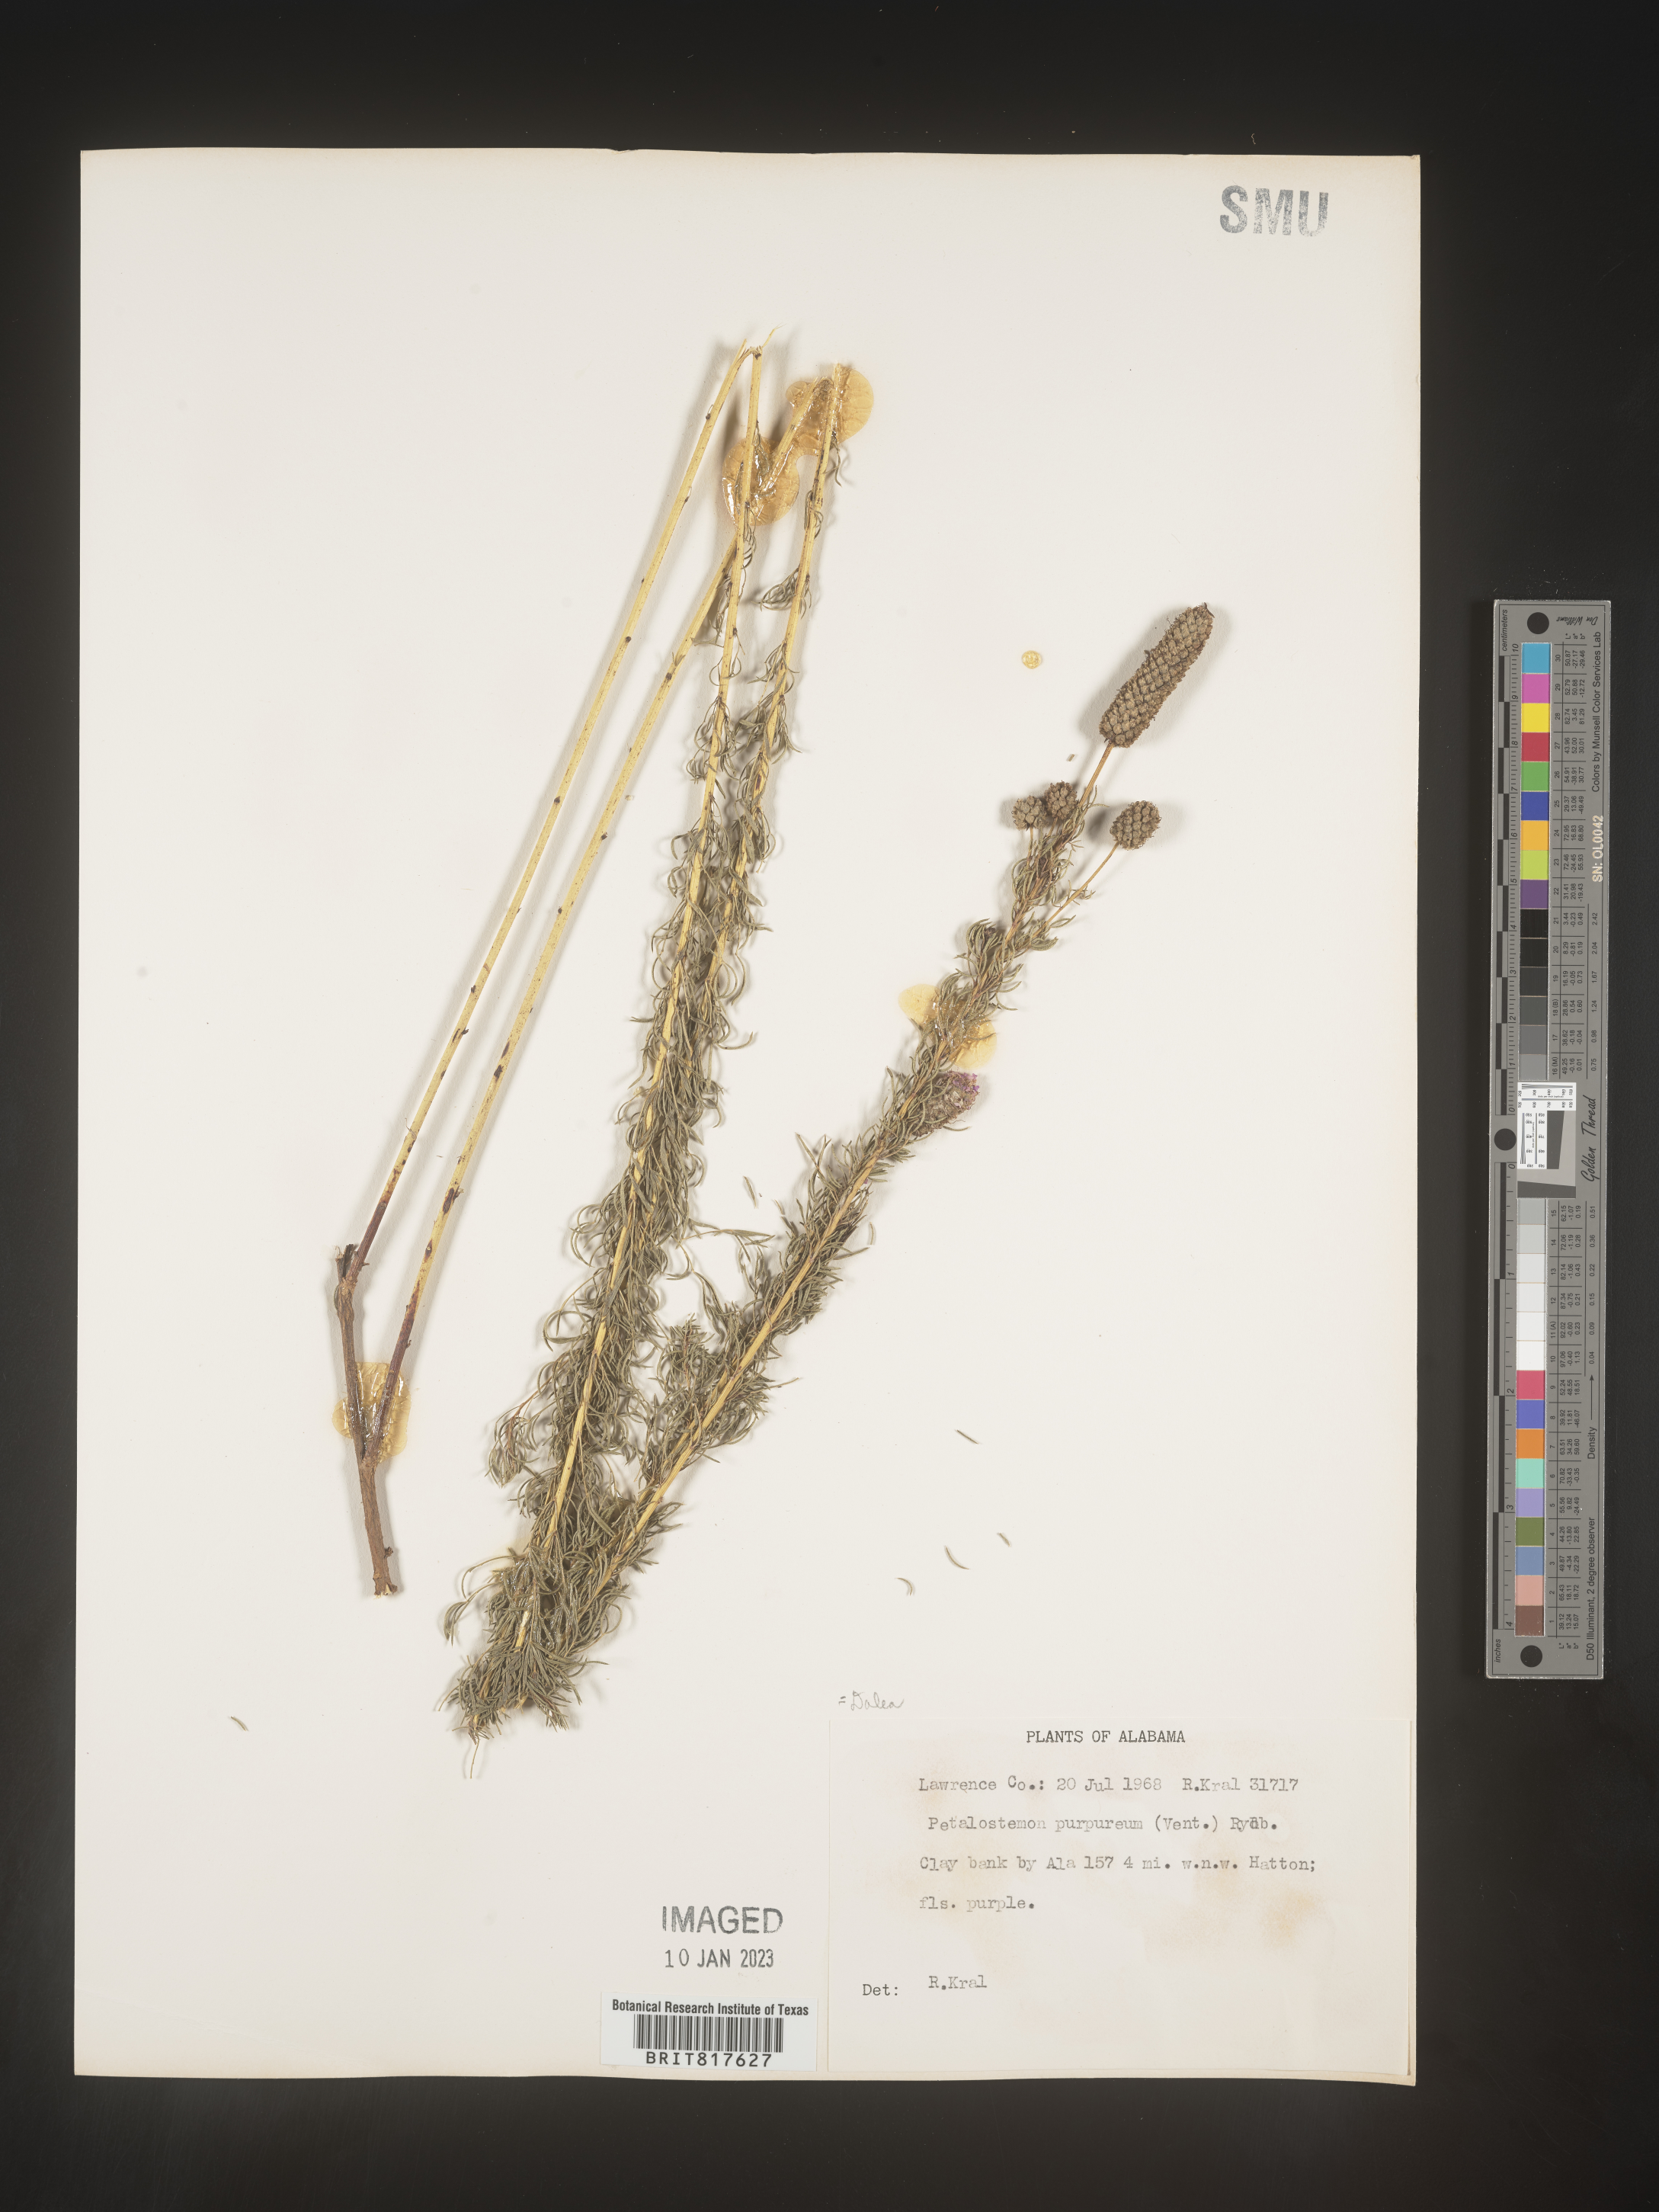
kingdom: Plantae
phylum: Tracheophyta
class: Magnoliopsida
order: Fabales
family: Fabaceae
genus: Dalea
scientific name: Dalea purpurea
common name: Purple prairie-clover
